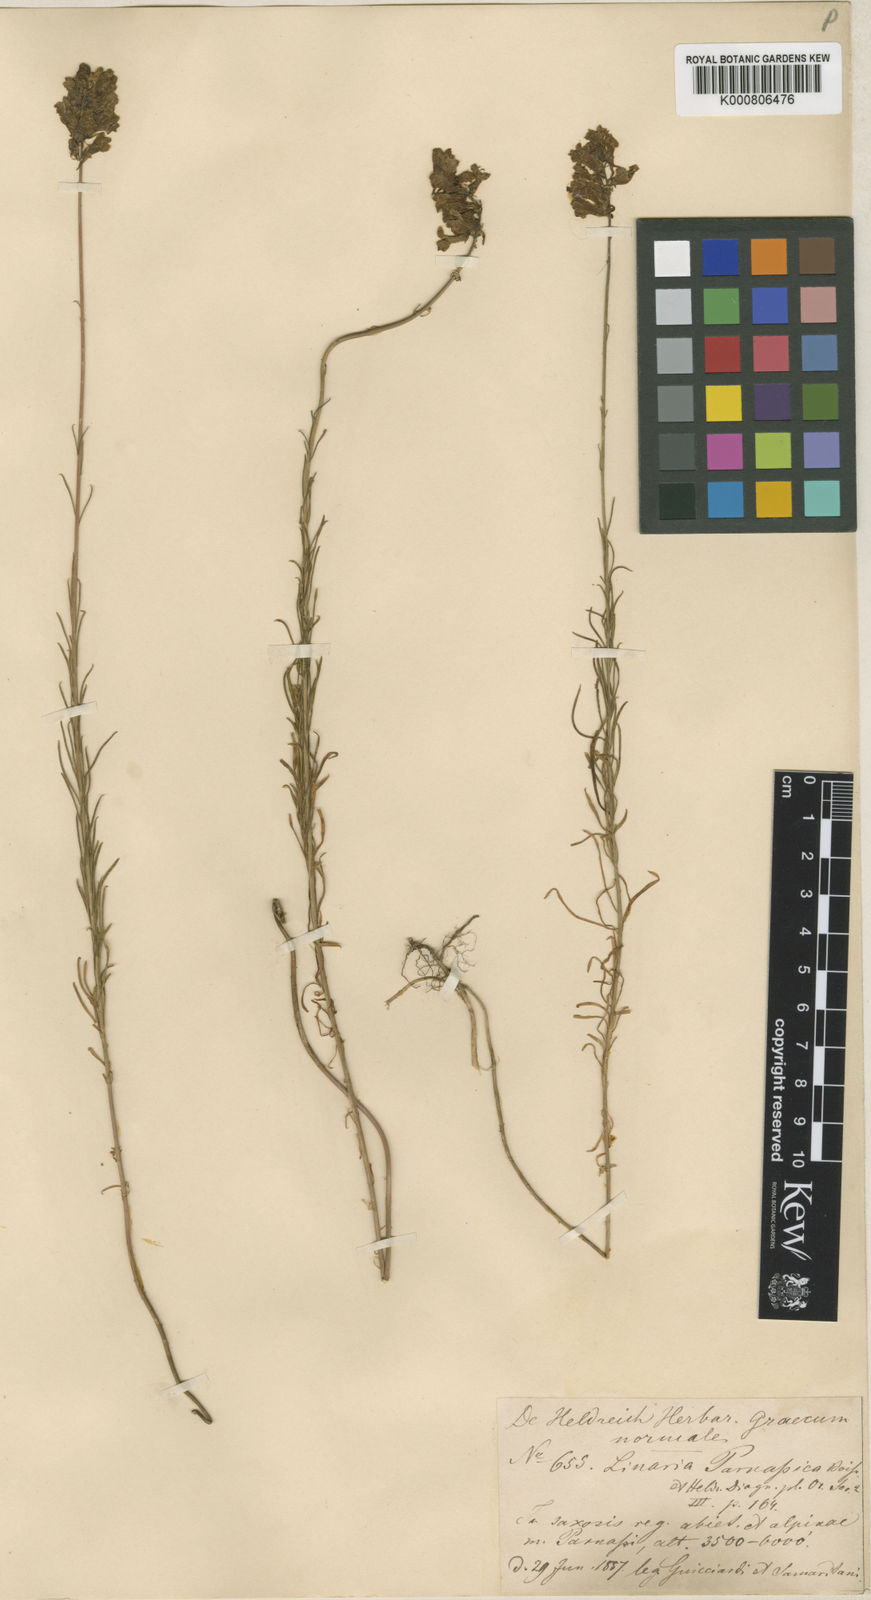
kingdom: Plantae
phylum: Tracheophyta
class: Magnoliopsida
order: Lamiales
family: Plantaginaceae
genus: Linaria
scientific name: Linaria peloponnesiaca
